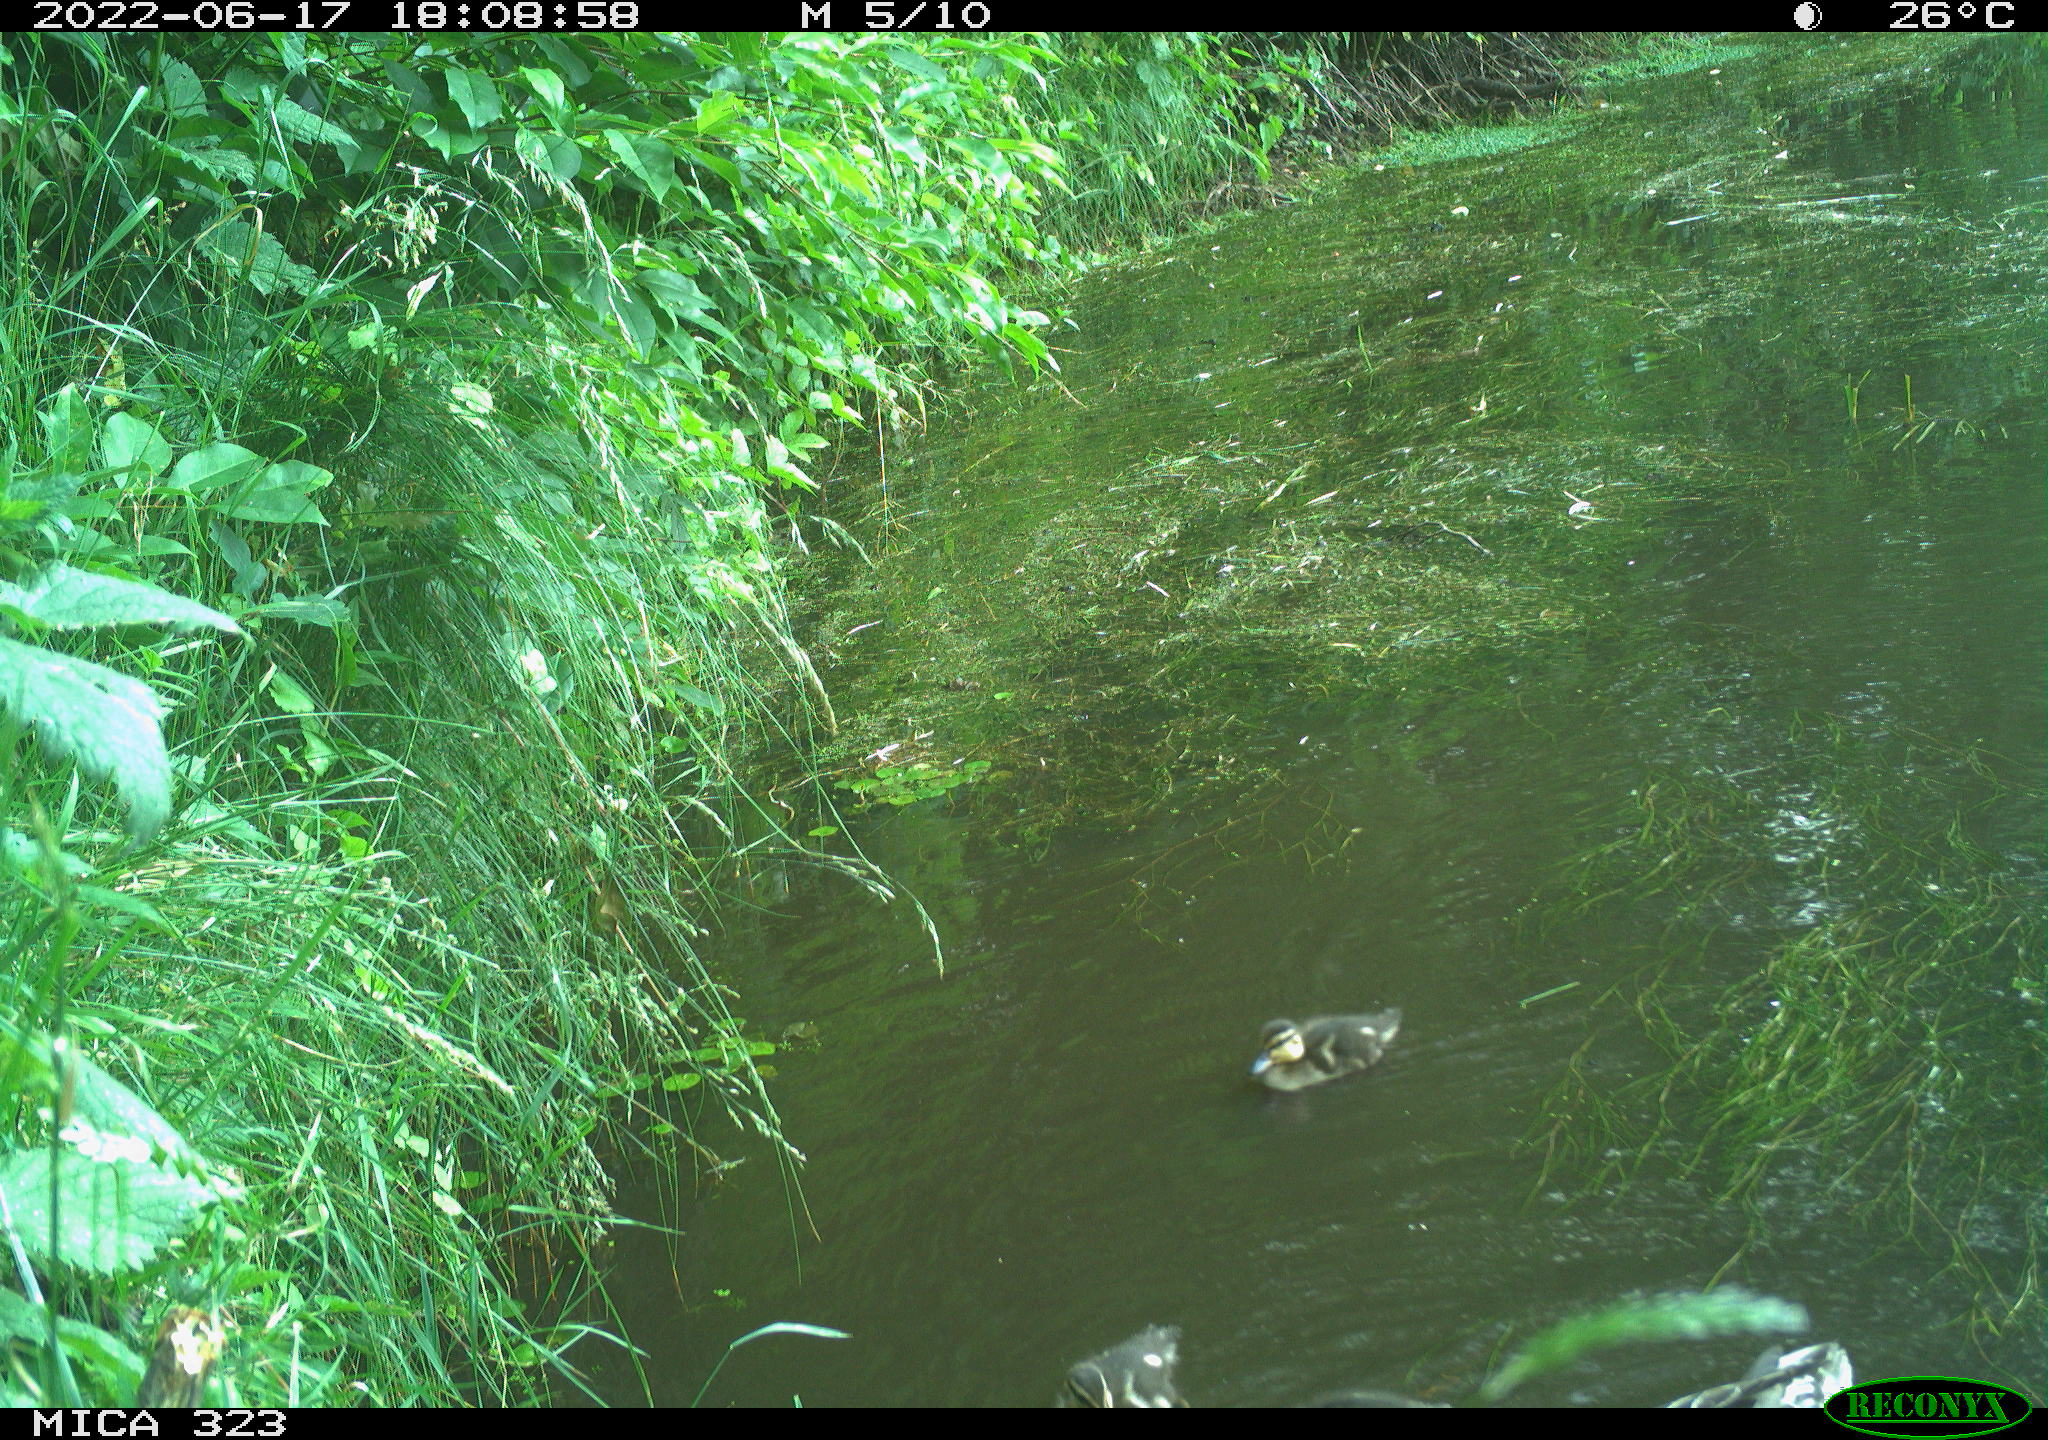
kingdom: Animalia
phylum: Chordata
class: Aves
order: Anseriformes
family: Anatidae
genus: Anas
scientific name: Anas
